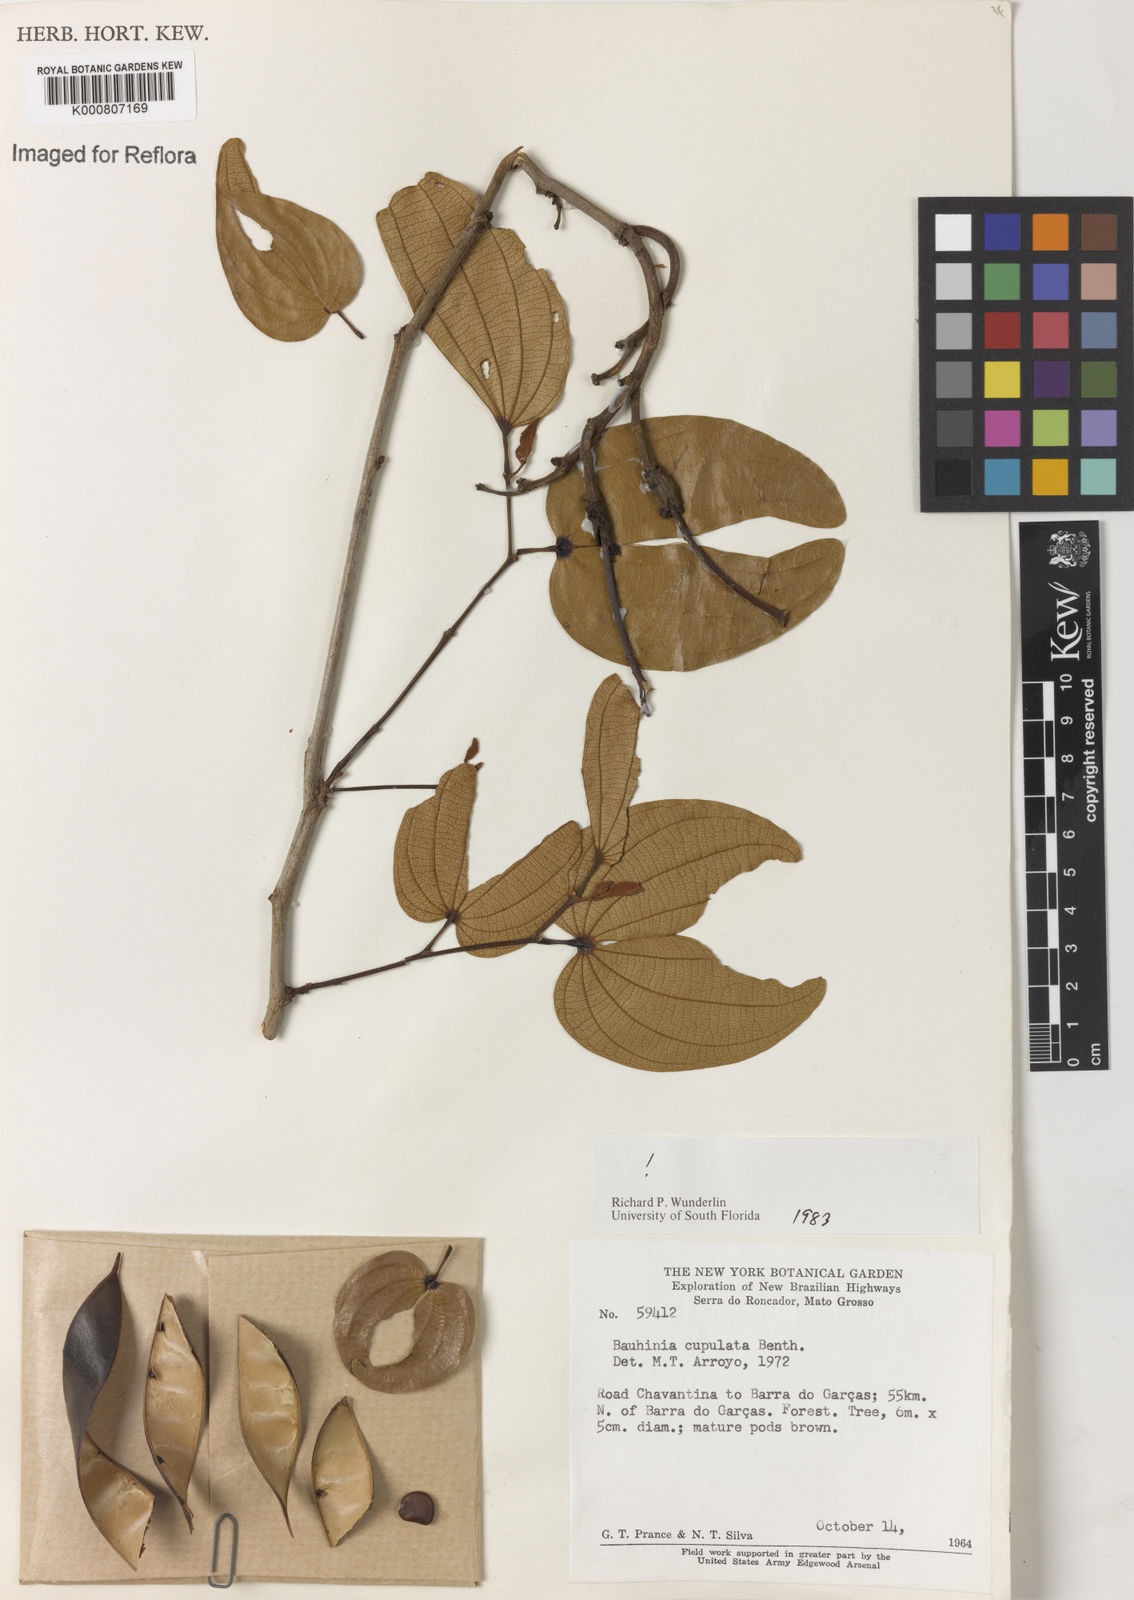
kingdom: Plantae
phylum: Tracheophyta
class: Magnoliopsida
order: Fabales
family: Fabaceae
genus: Bauhinia
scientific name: Bauhinia cupulata
